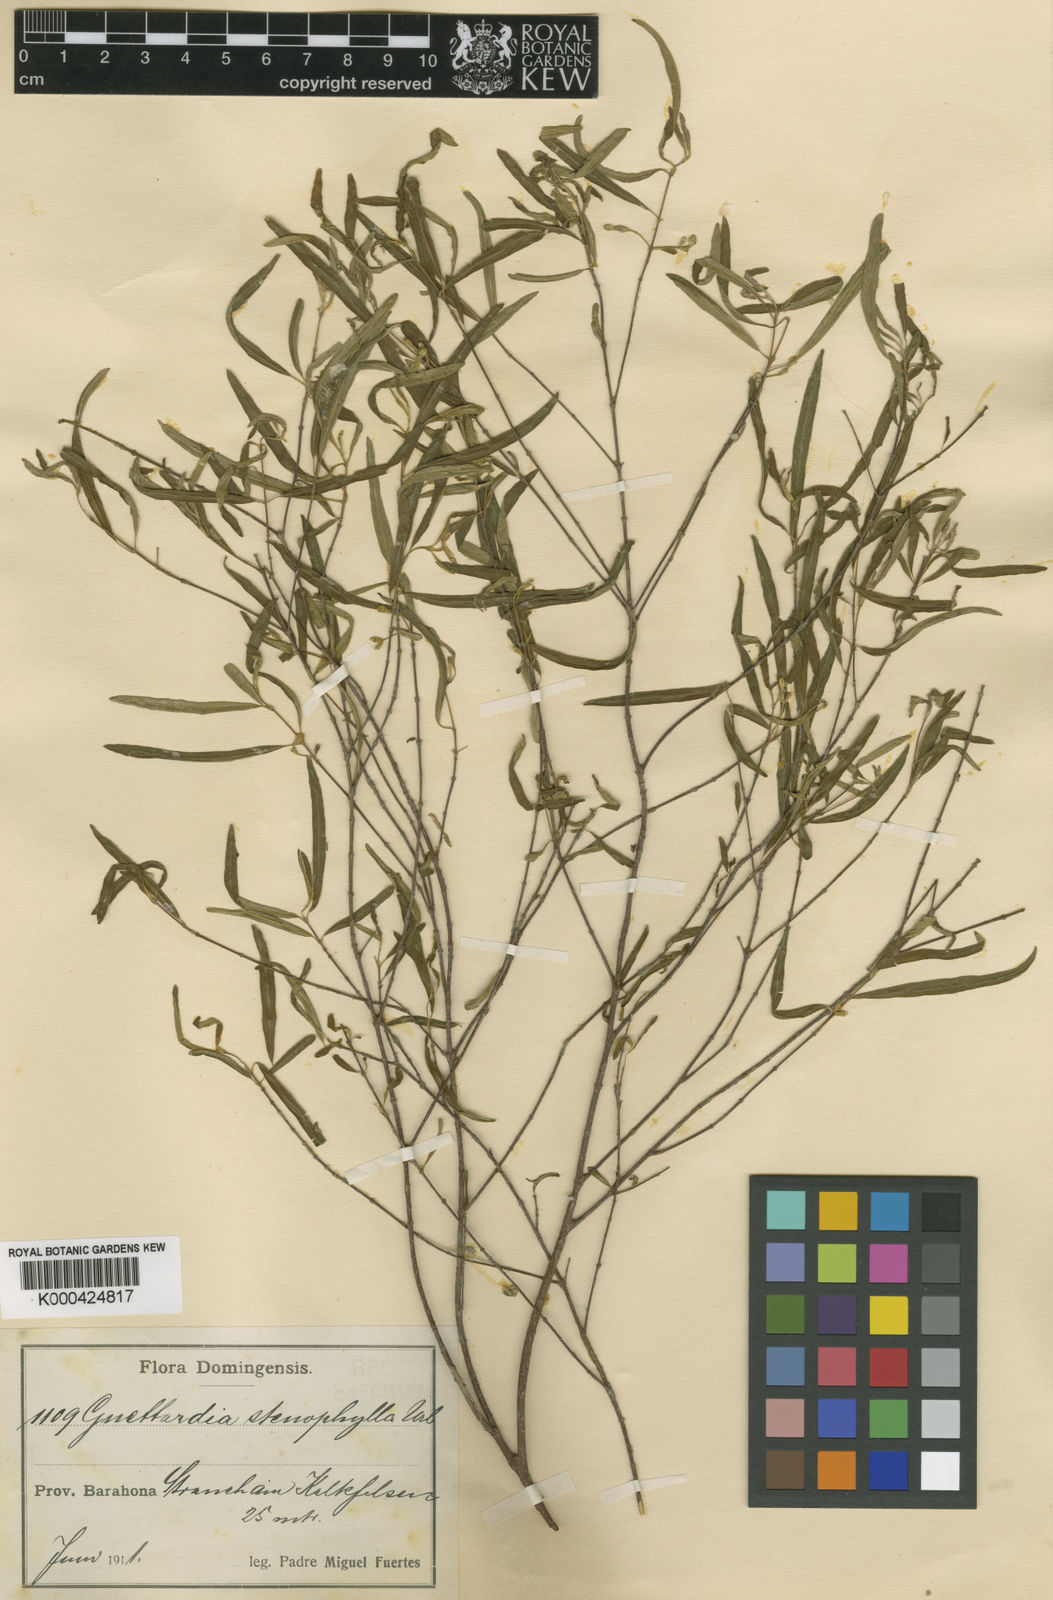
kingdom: Plantae
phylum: Tracheophyta
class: Magnoliopsida
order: Gentianales
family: Rubiaceae
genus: Guettarda
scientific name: Guettarda stenophylla
